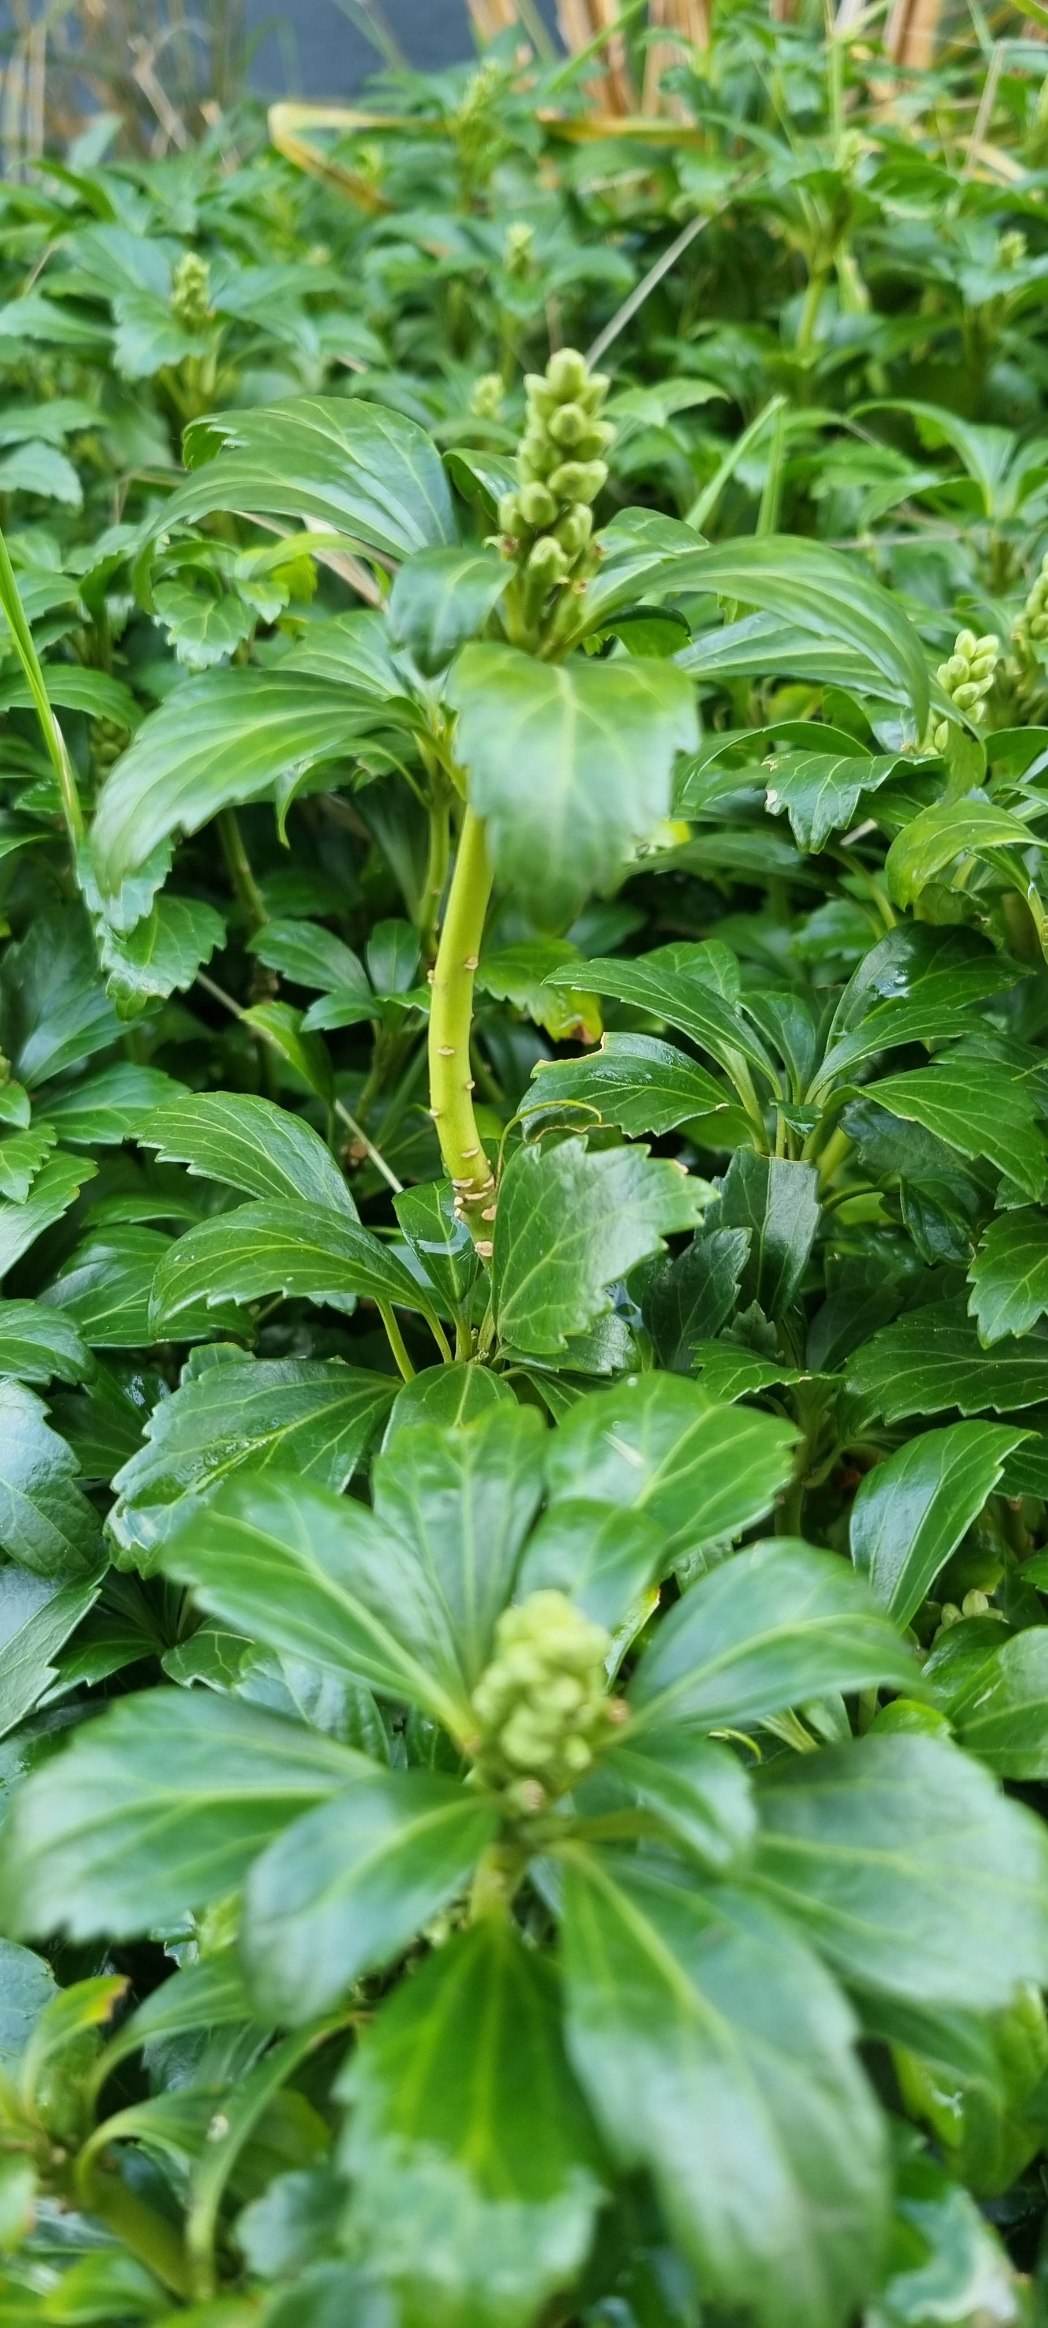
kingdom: Plantae
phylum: Tracheophyta
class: Magnoliopsida
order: Buxales
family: Buxaceae
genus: Pachysandra
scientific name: Pachysandra terminalis
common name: Vinterglans
